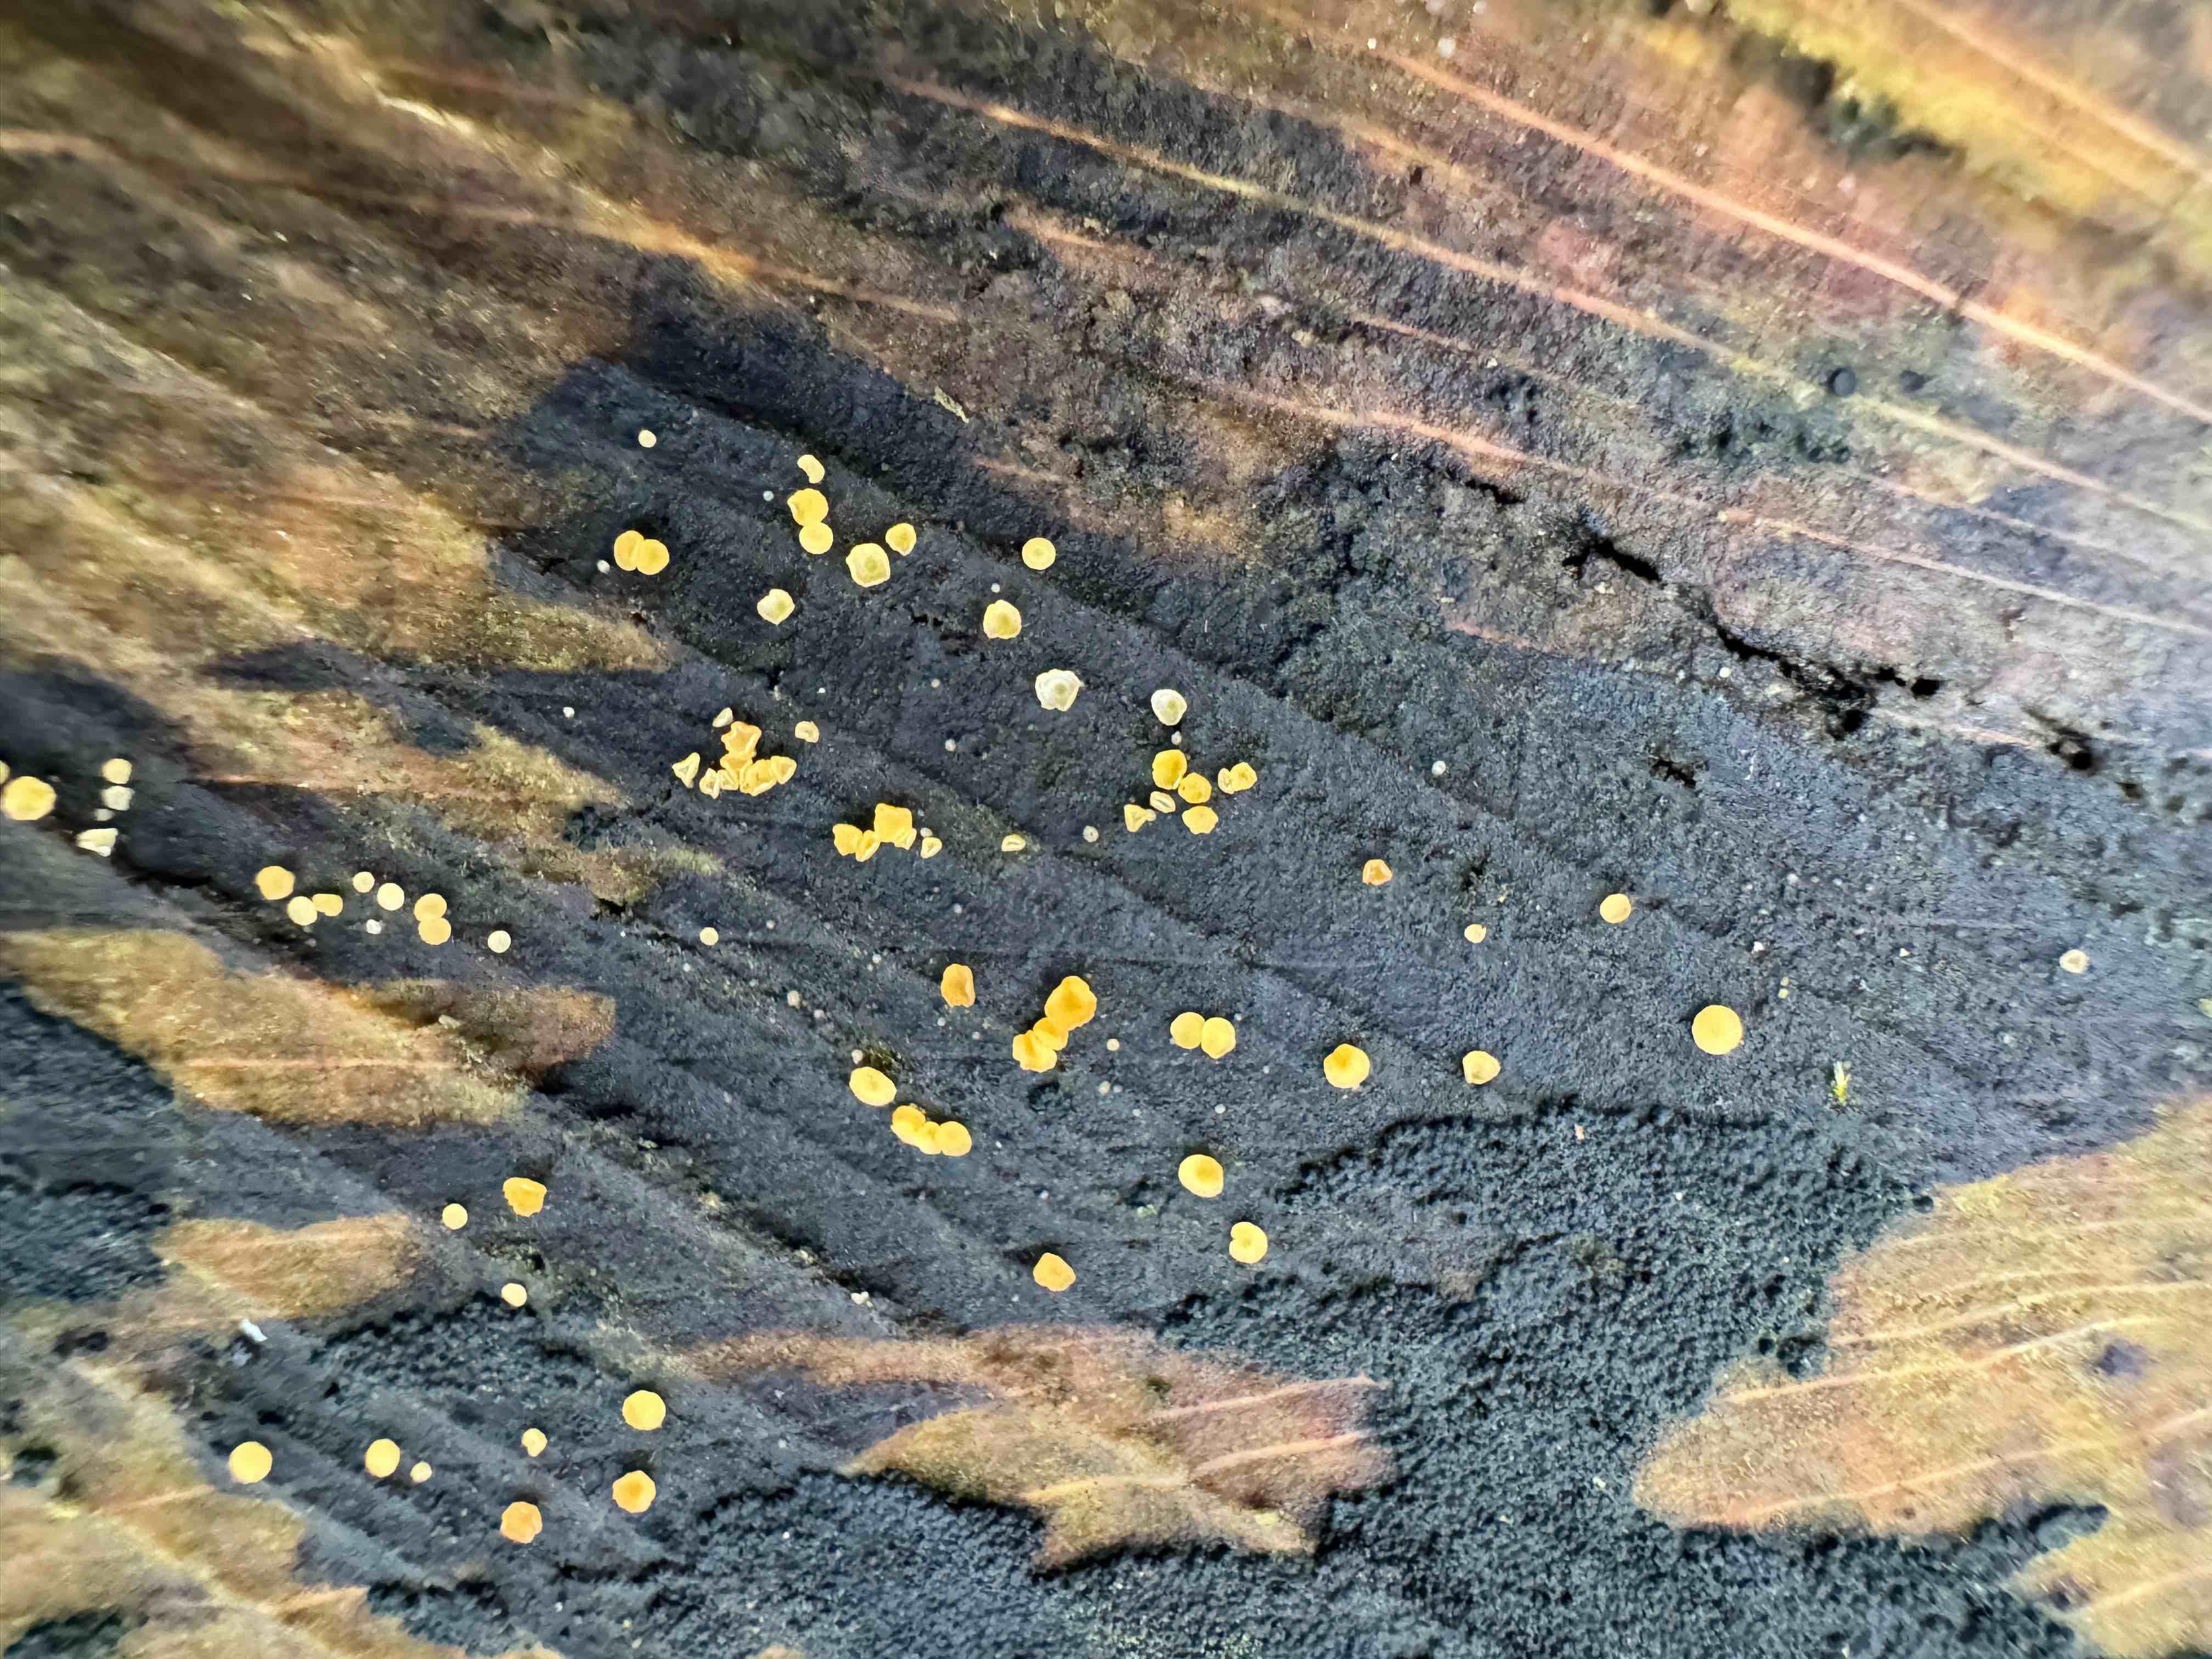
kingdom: Fungi
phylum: Ascomycota
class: Leotiomycetes
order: Helotiales
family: Helotiaceae
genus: Bisporella
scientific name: Bisporella
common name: snitskive
